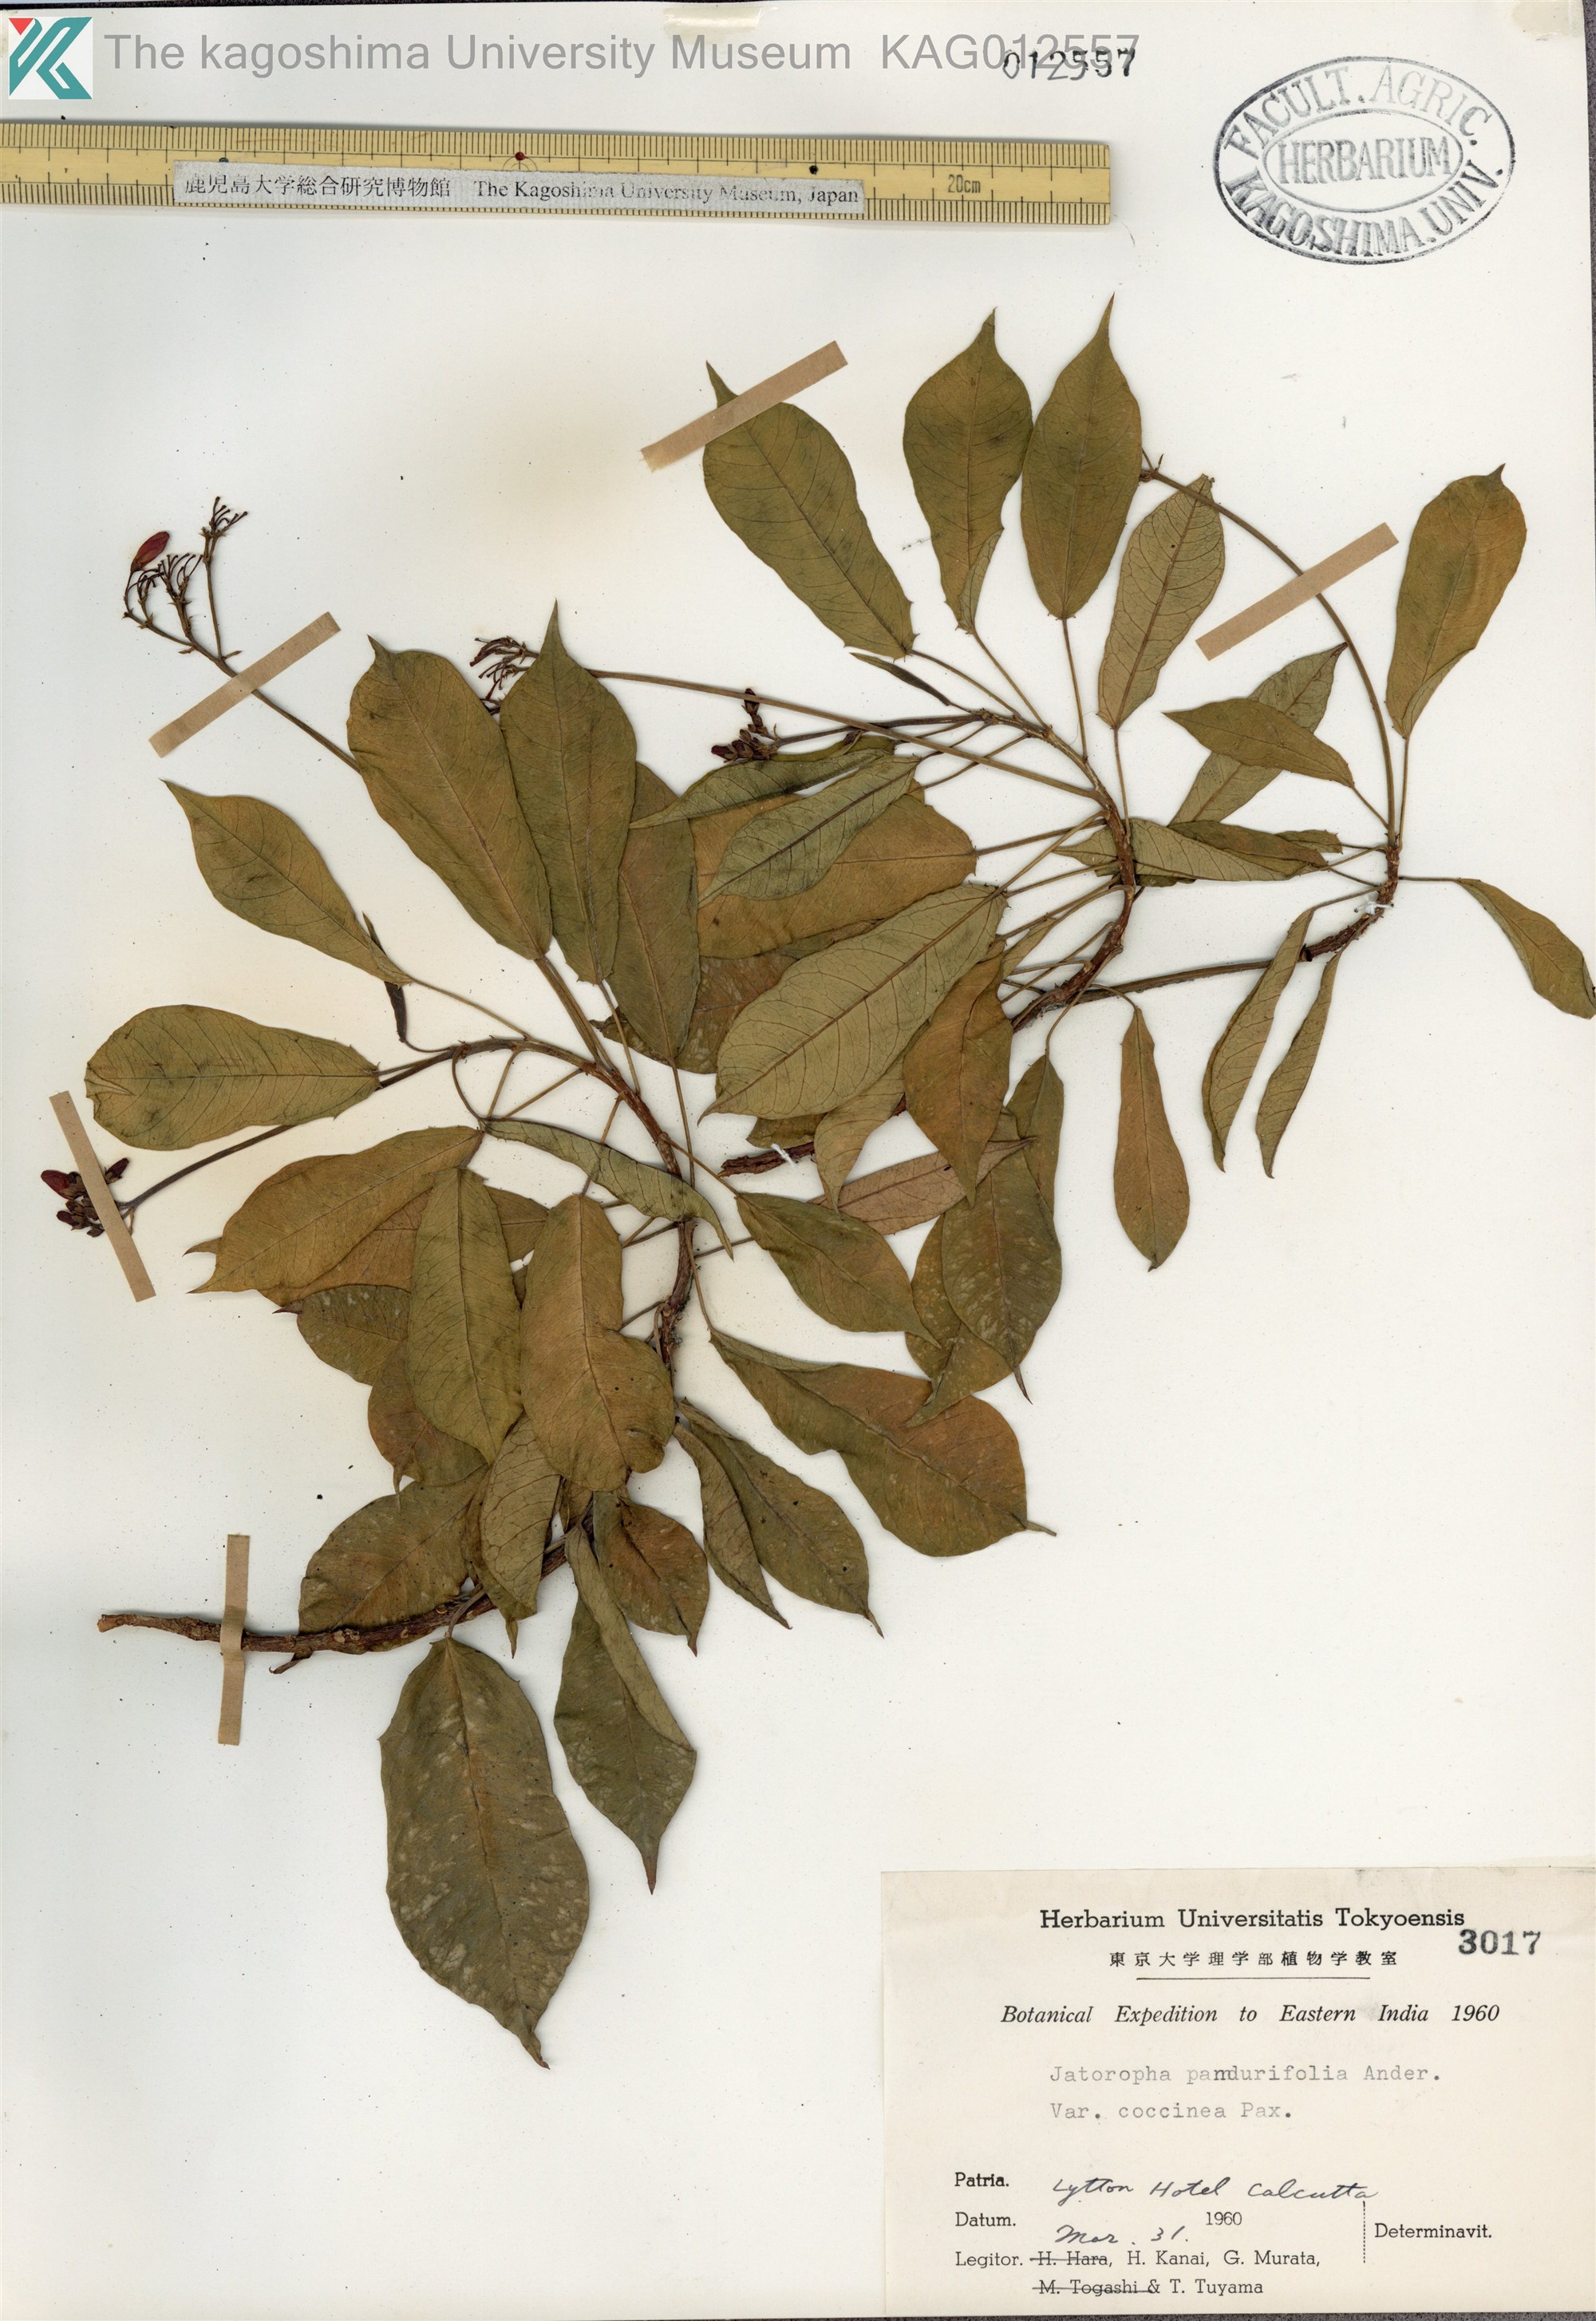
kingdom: Plantae
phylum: Tracheophyta
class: Magnoliopsida
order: Malpighiales
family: Euphorbiaceae
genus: Jatropha
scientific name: Jatropha integerrima
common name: Peregrina
